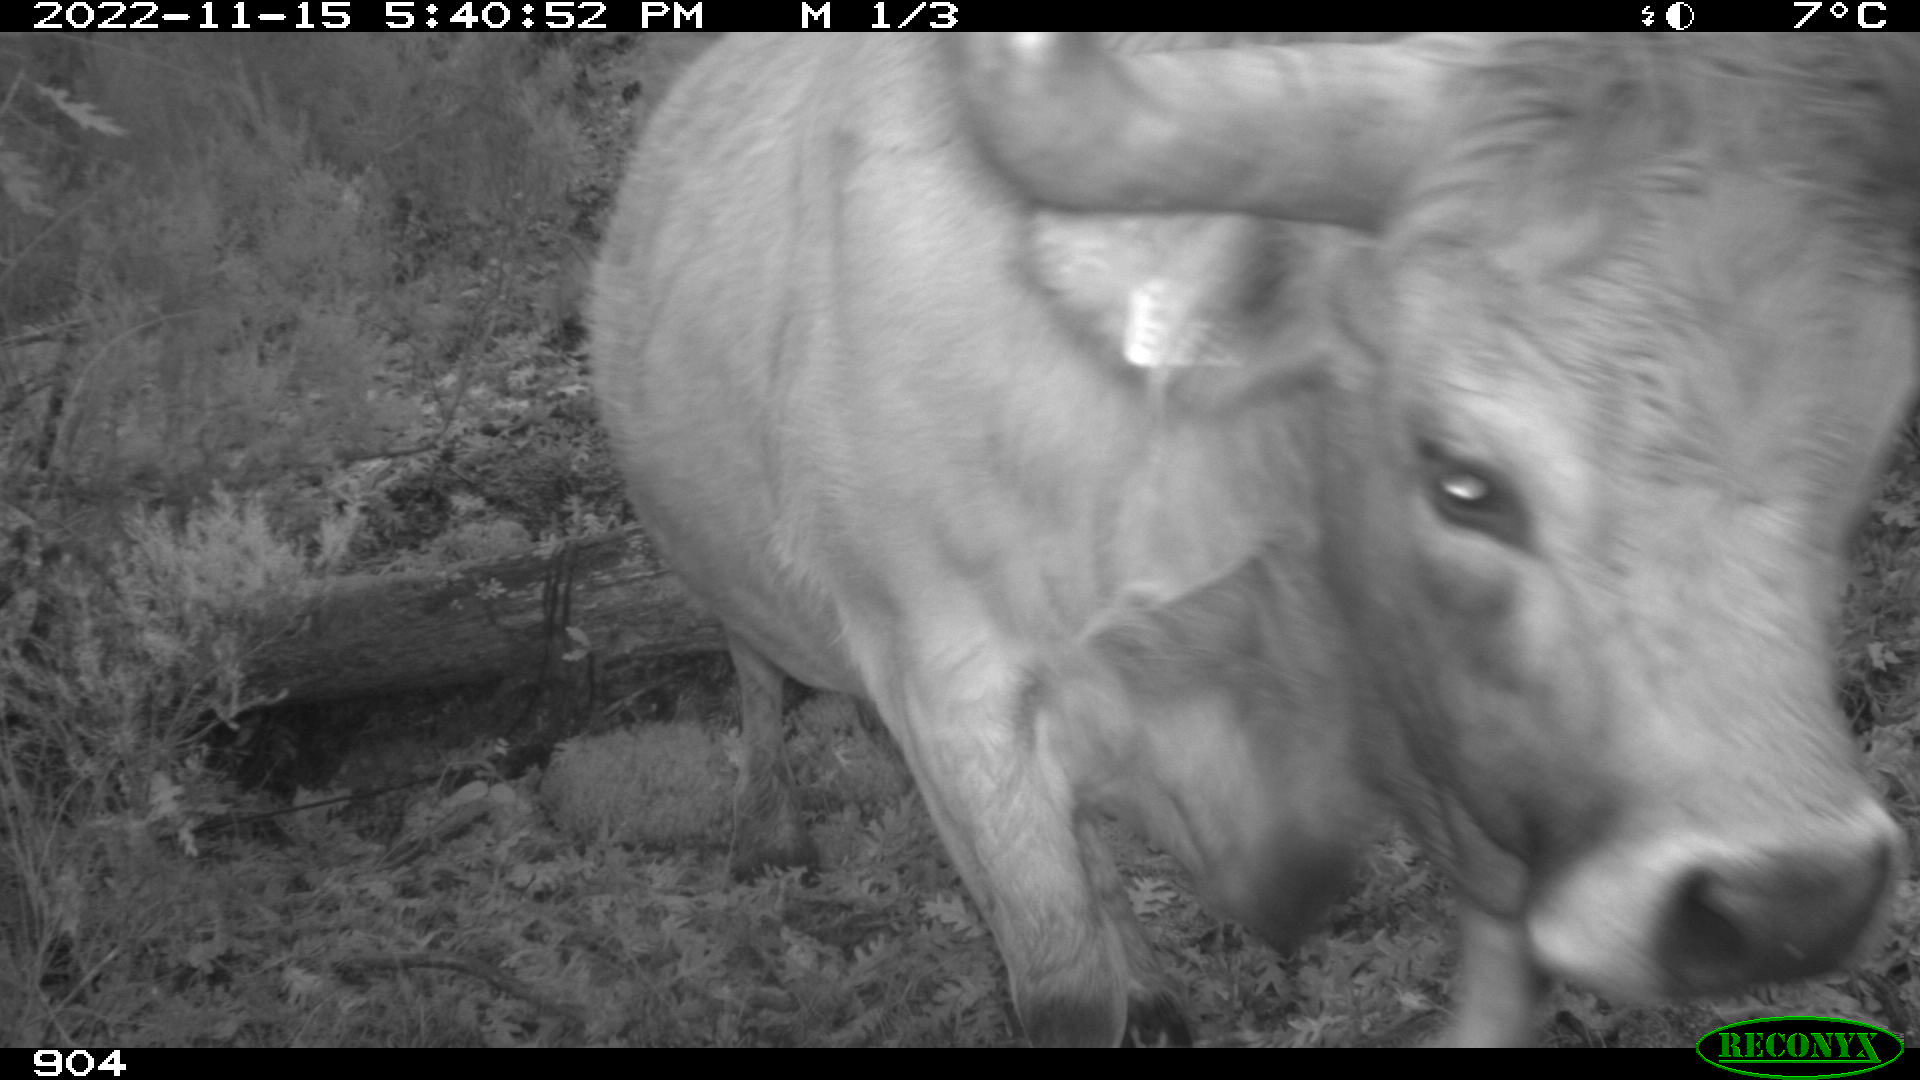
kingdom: Animalia
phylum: Chordata
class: Mammalia
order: Artiodactyla
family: Bovidae
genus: Bos
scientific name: Bos taurus
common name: Domesticated cattle
